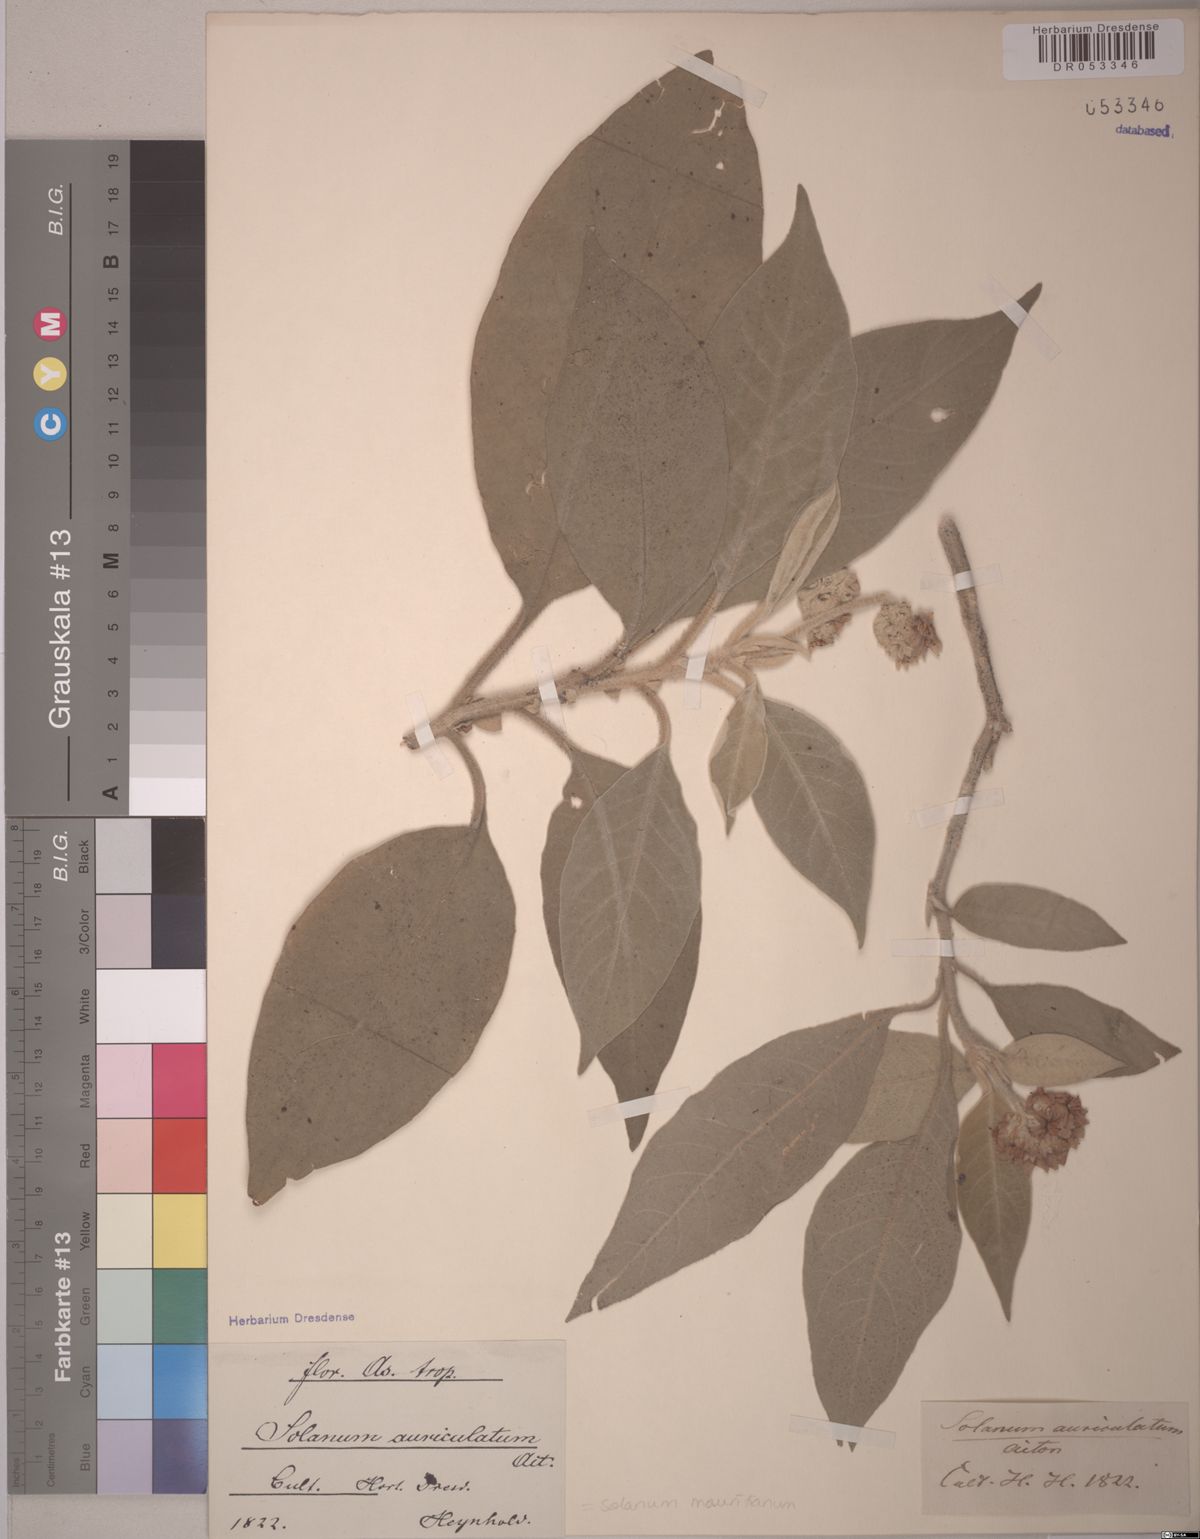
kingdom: Plantae
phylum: Tracheophyta
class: Magnoliopsida
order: Solanales
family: Solanaceae
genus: Solanum
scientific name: Solanum mauritianum
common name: Earleaf nightshade
